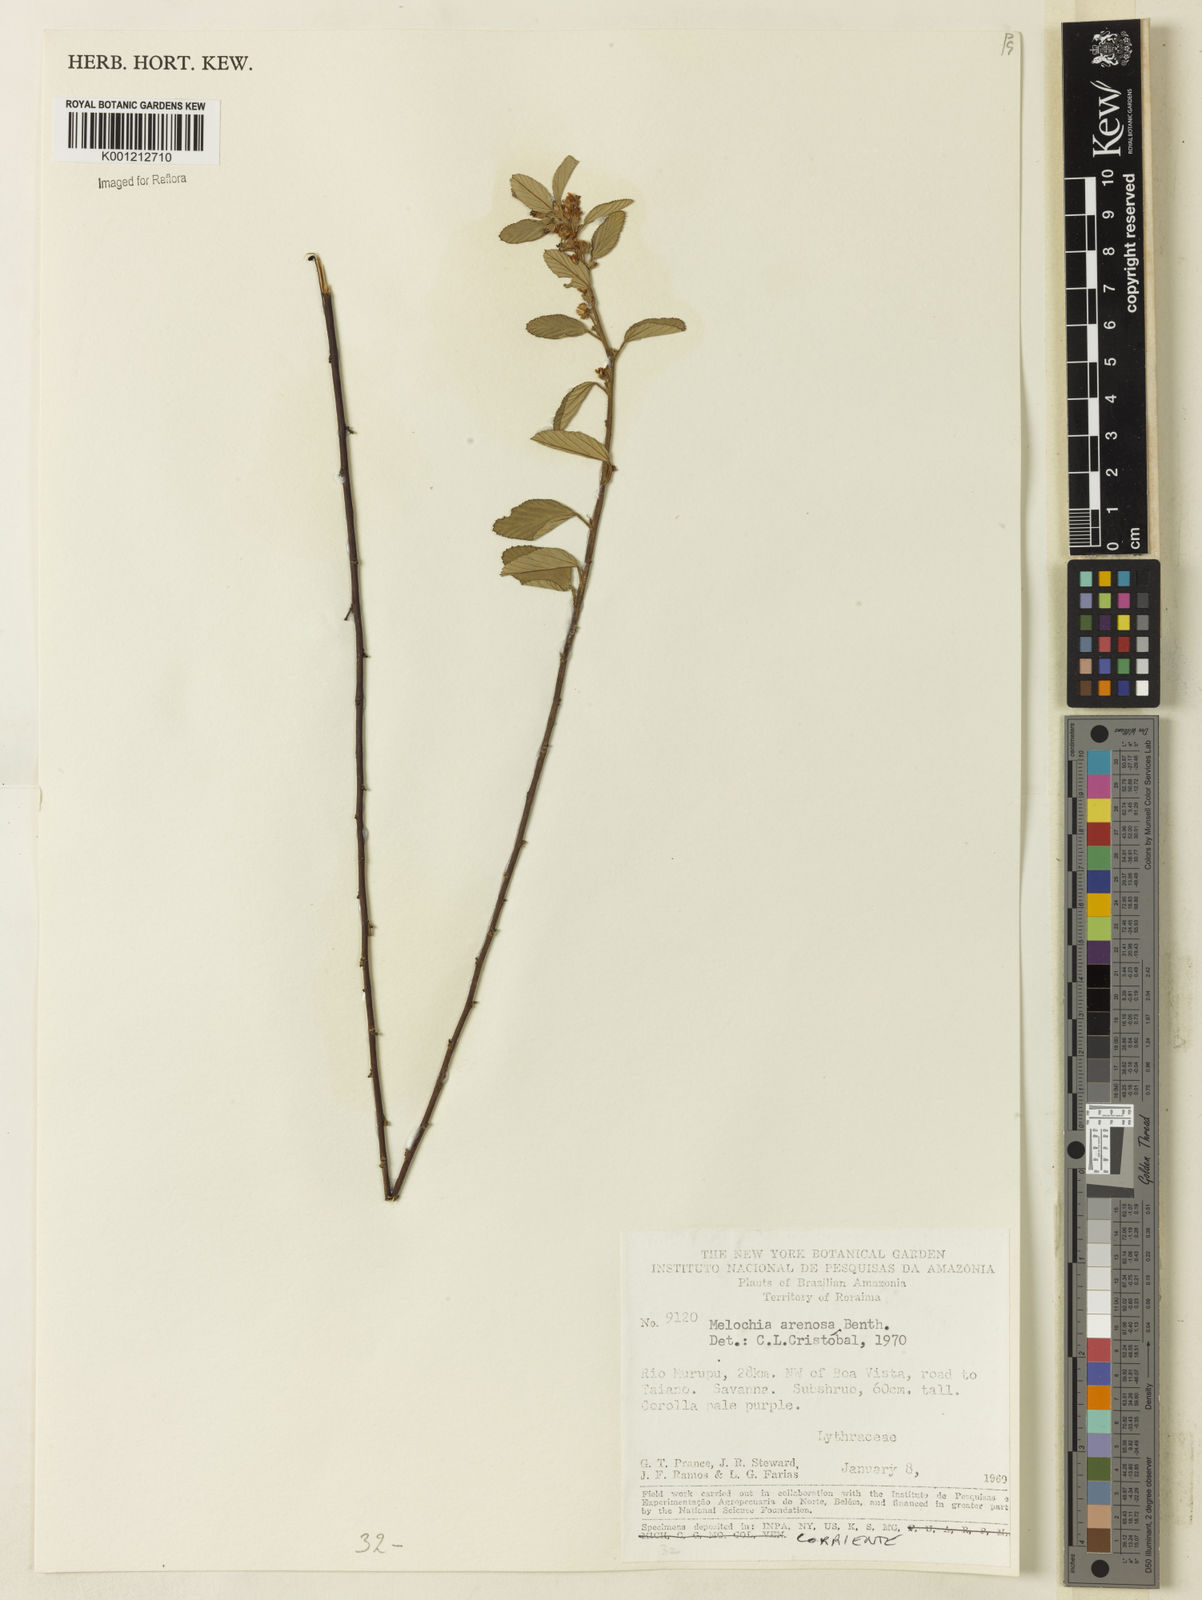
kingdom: Plantae
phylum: Tracheophyta
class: Magnoliopsida
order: Malvales
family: Malvaceae
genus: Melochia
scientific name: Melochia arenosa
